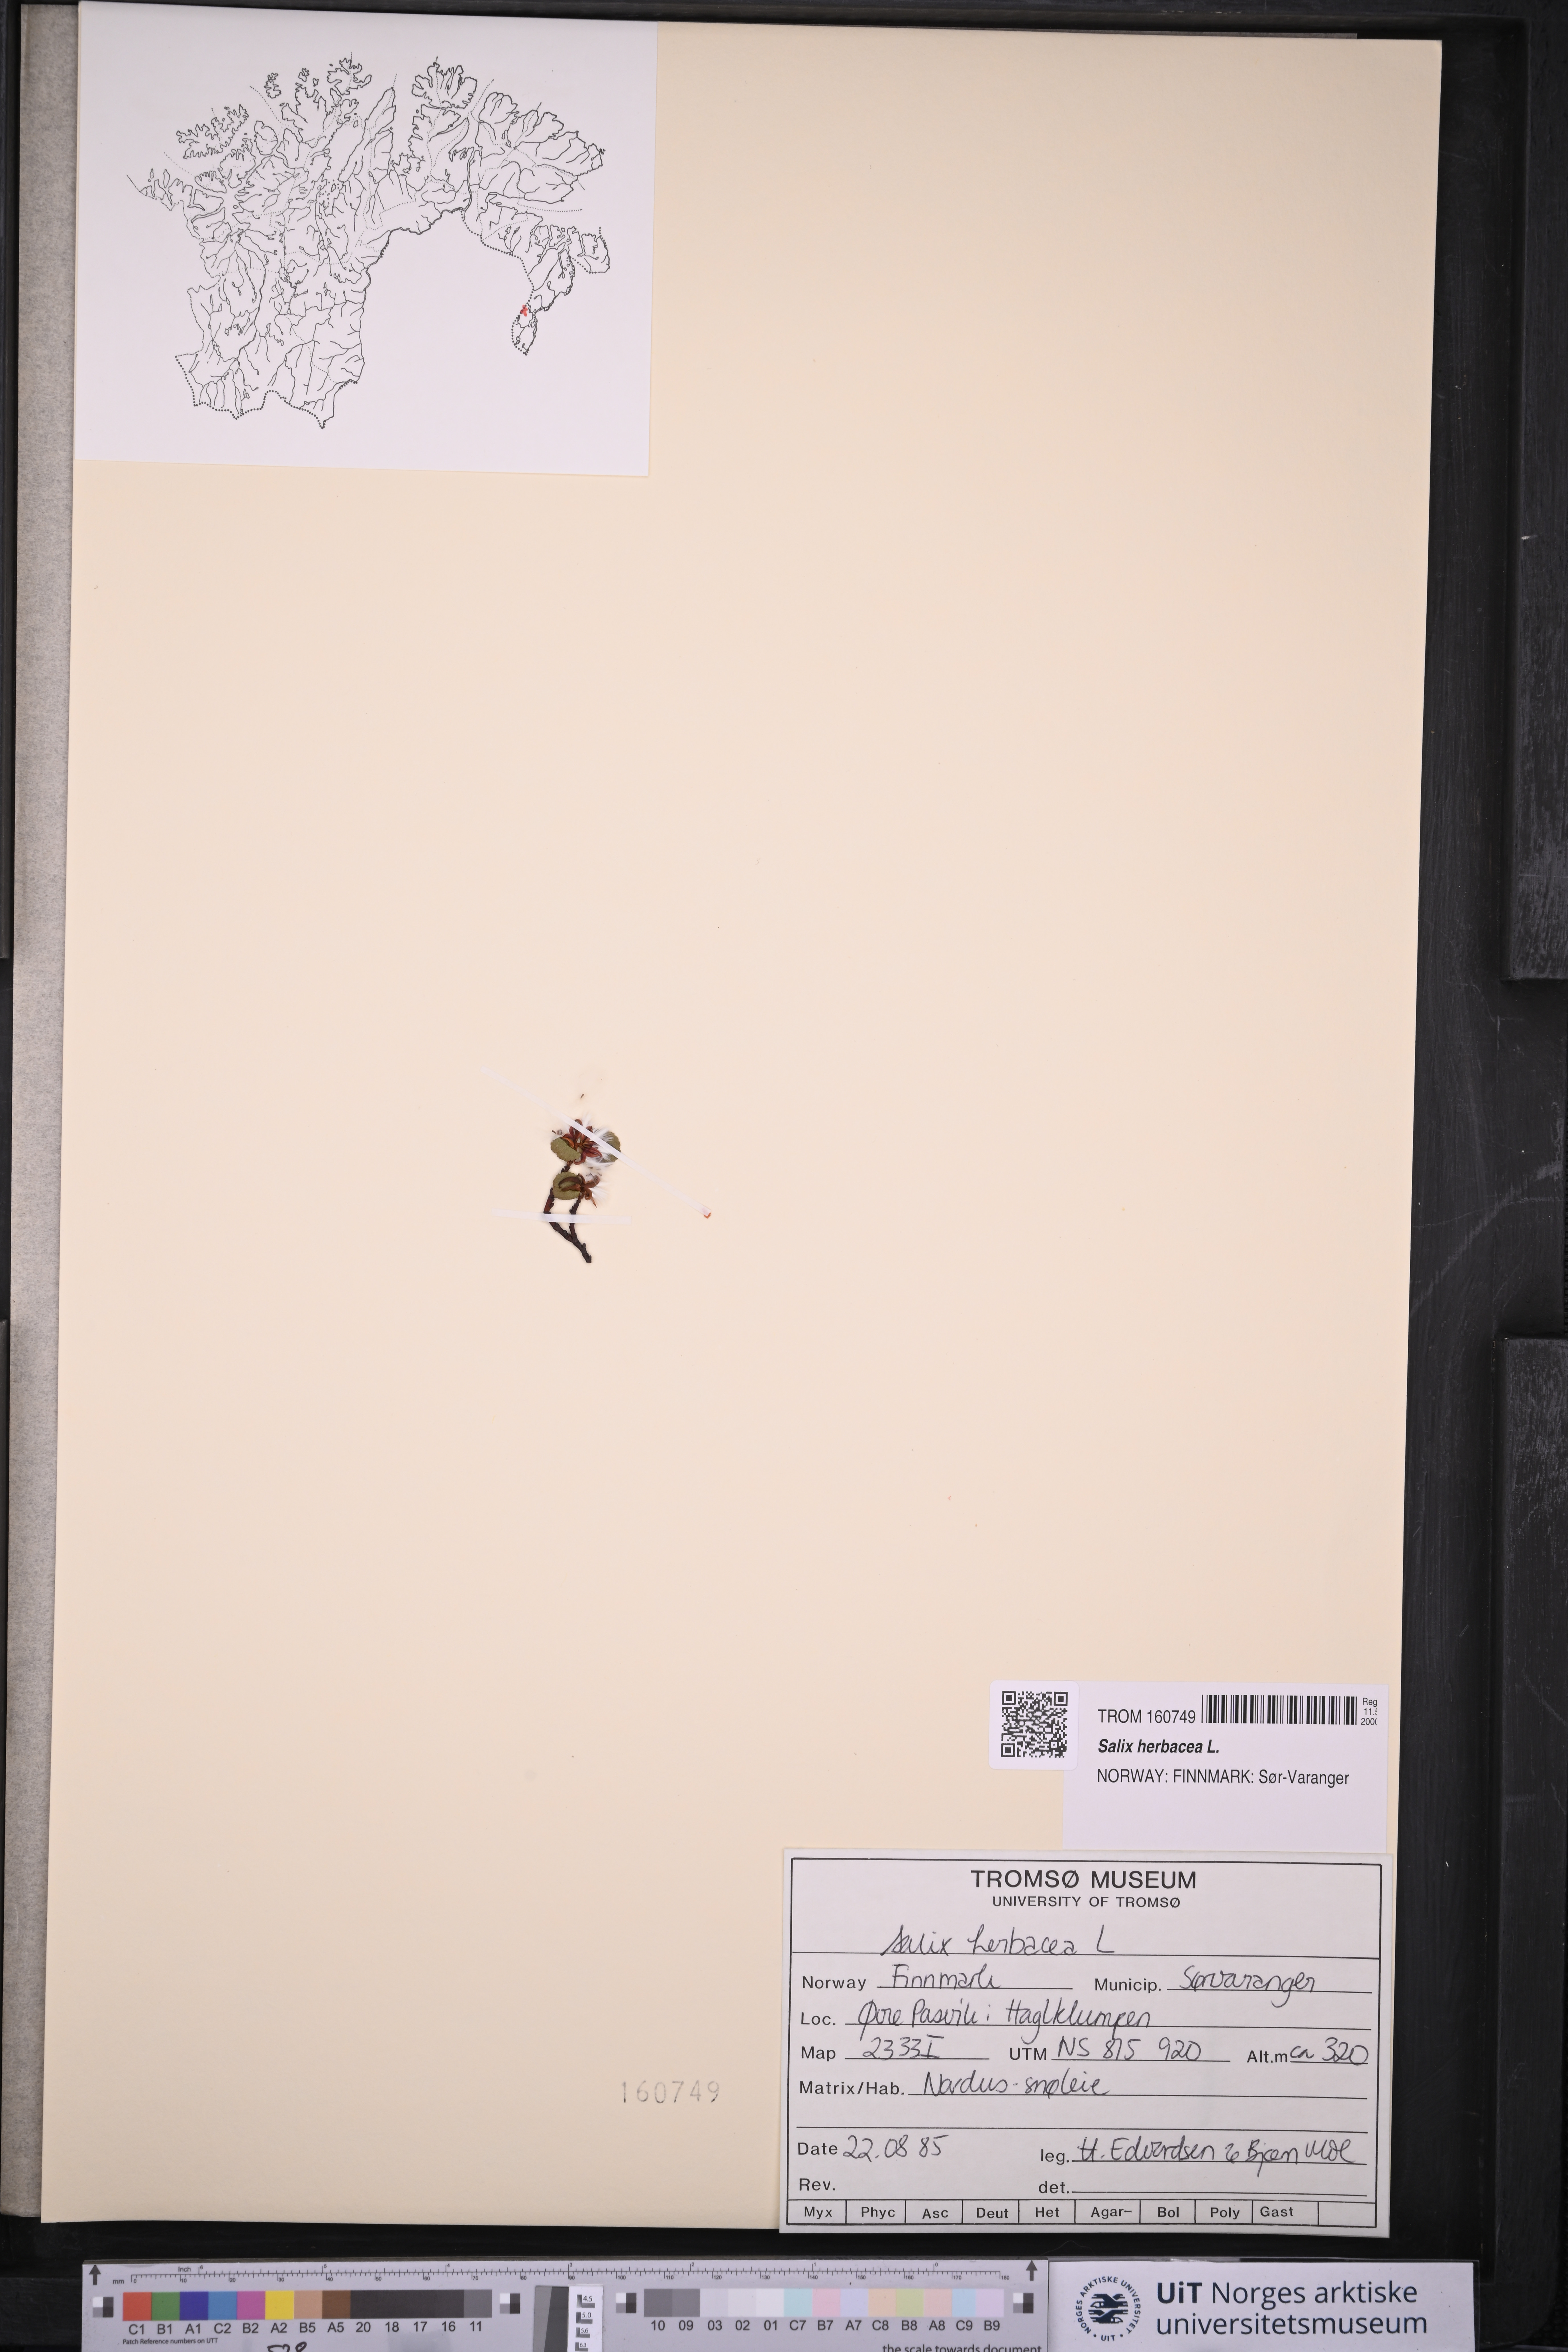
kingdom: Plantae
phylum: Tracheophyta
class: Magnoliopsida
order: Malpighiales
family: Salicaceae
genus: Salix
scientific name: Salix herbacea
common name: Dwarf willow
